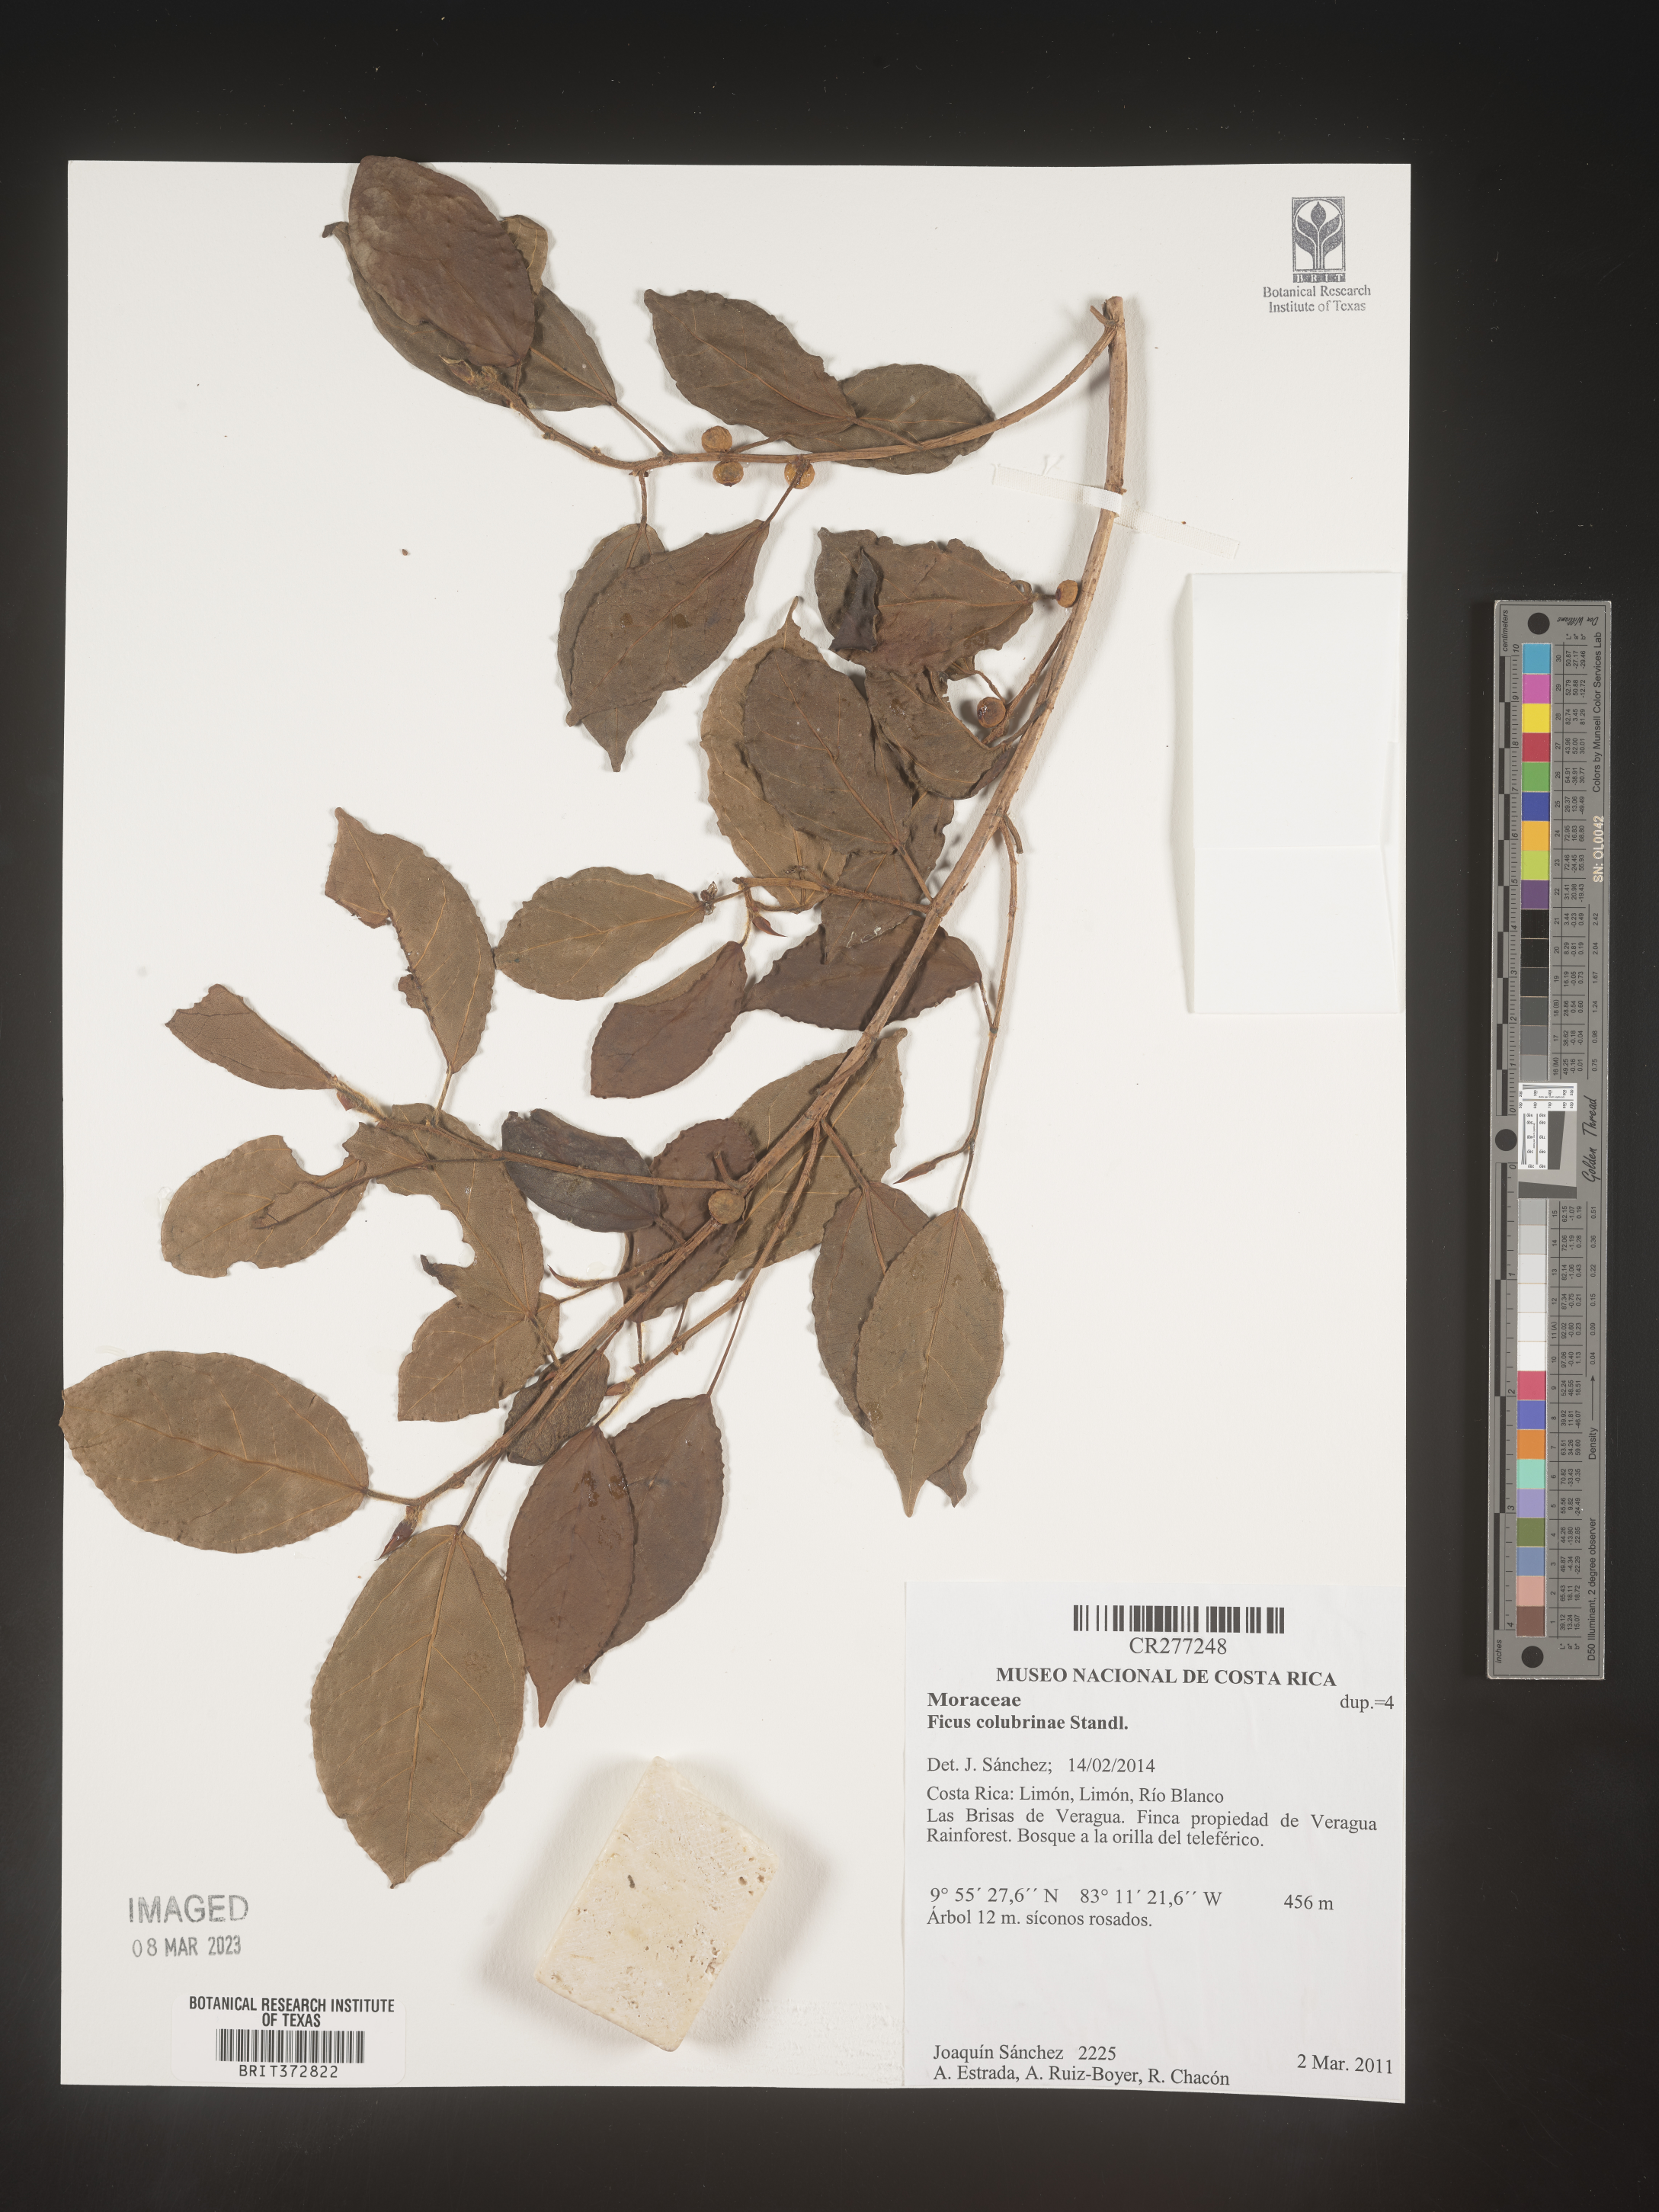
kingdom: Plantae
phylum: Tracheophyta
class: Magnoliopsida
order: Rosales
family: Moraceae
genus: Ficus
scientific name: Ficus colubrinae
